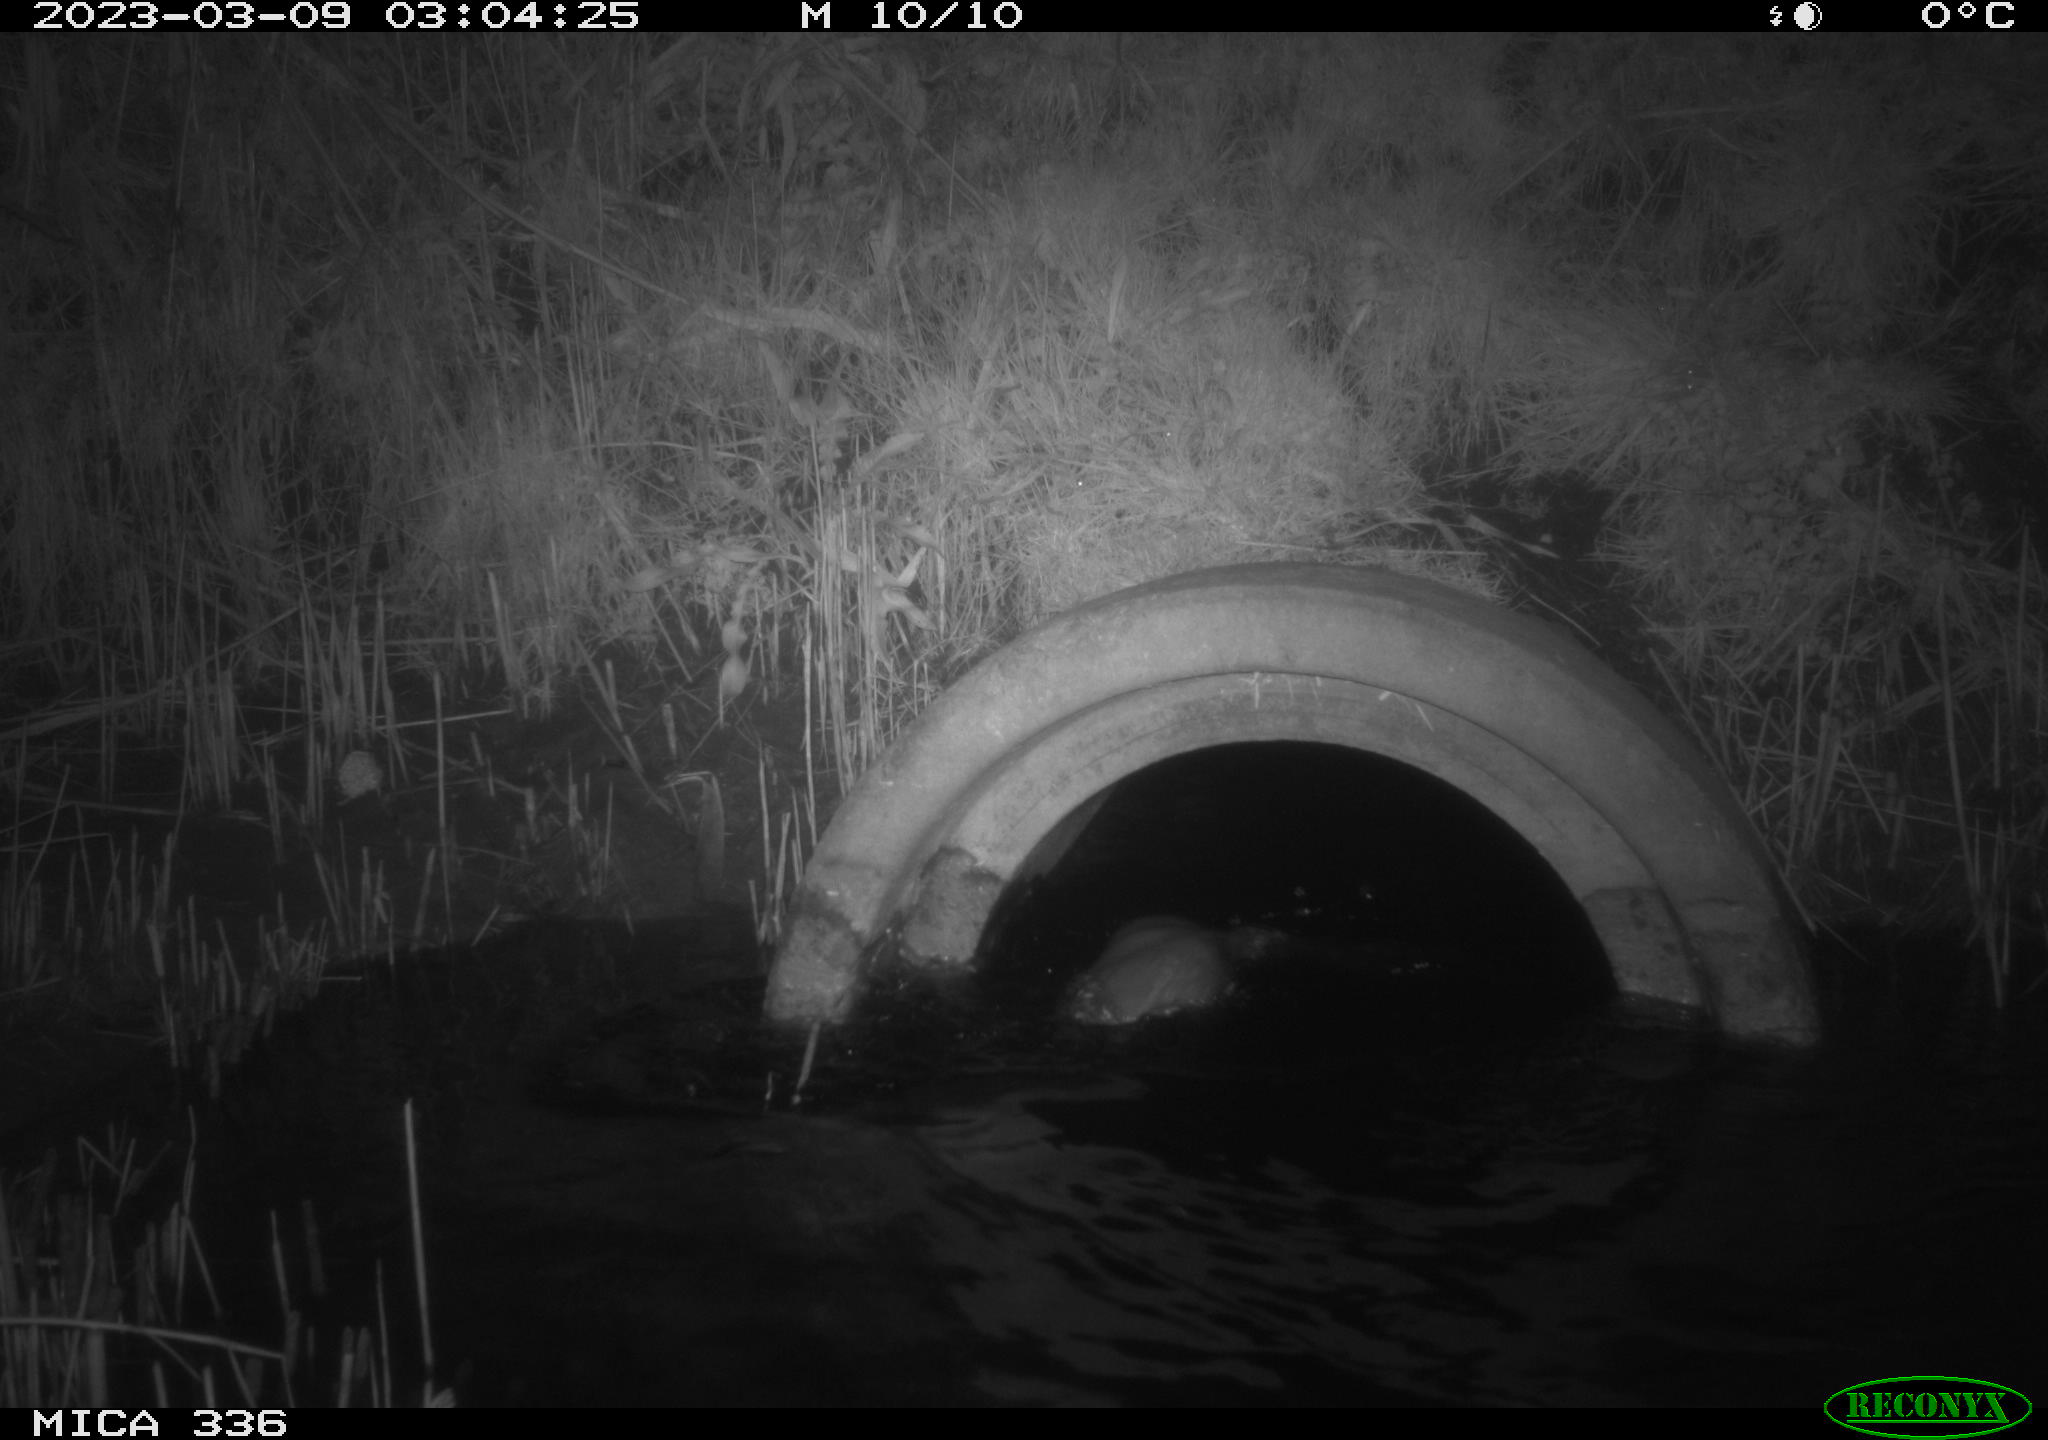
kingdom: Animalia
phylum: Chordata
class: Mammalia
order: Carnivora
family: Mustelidae
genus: Lutra
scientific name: Lutra lutra
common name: European otter
